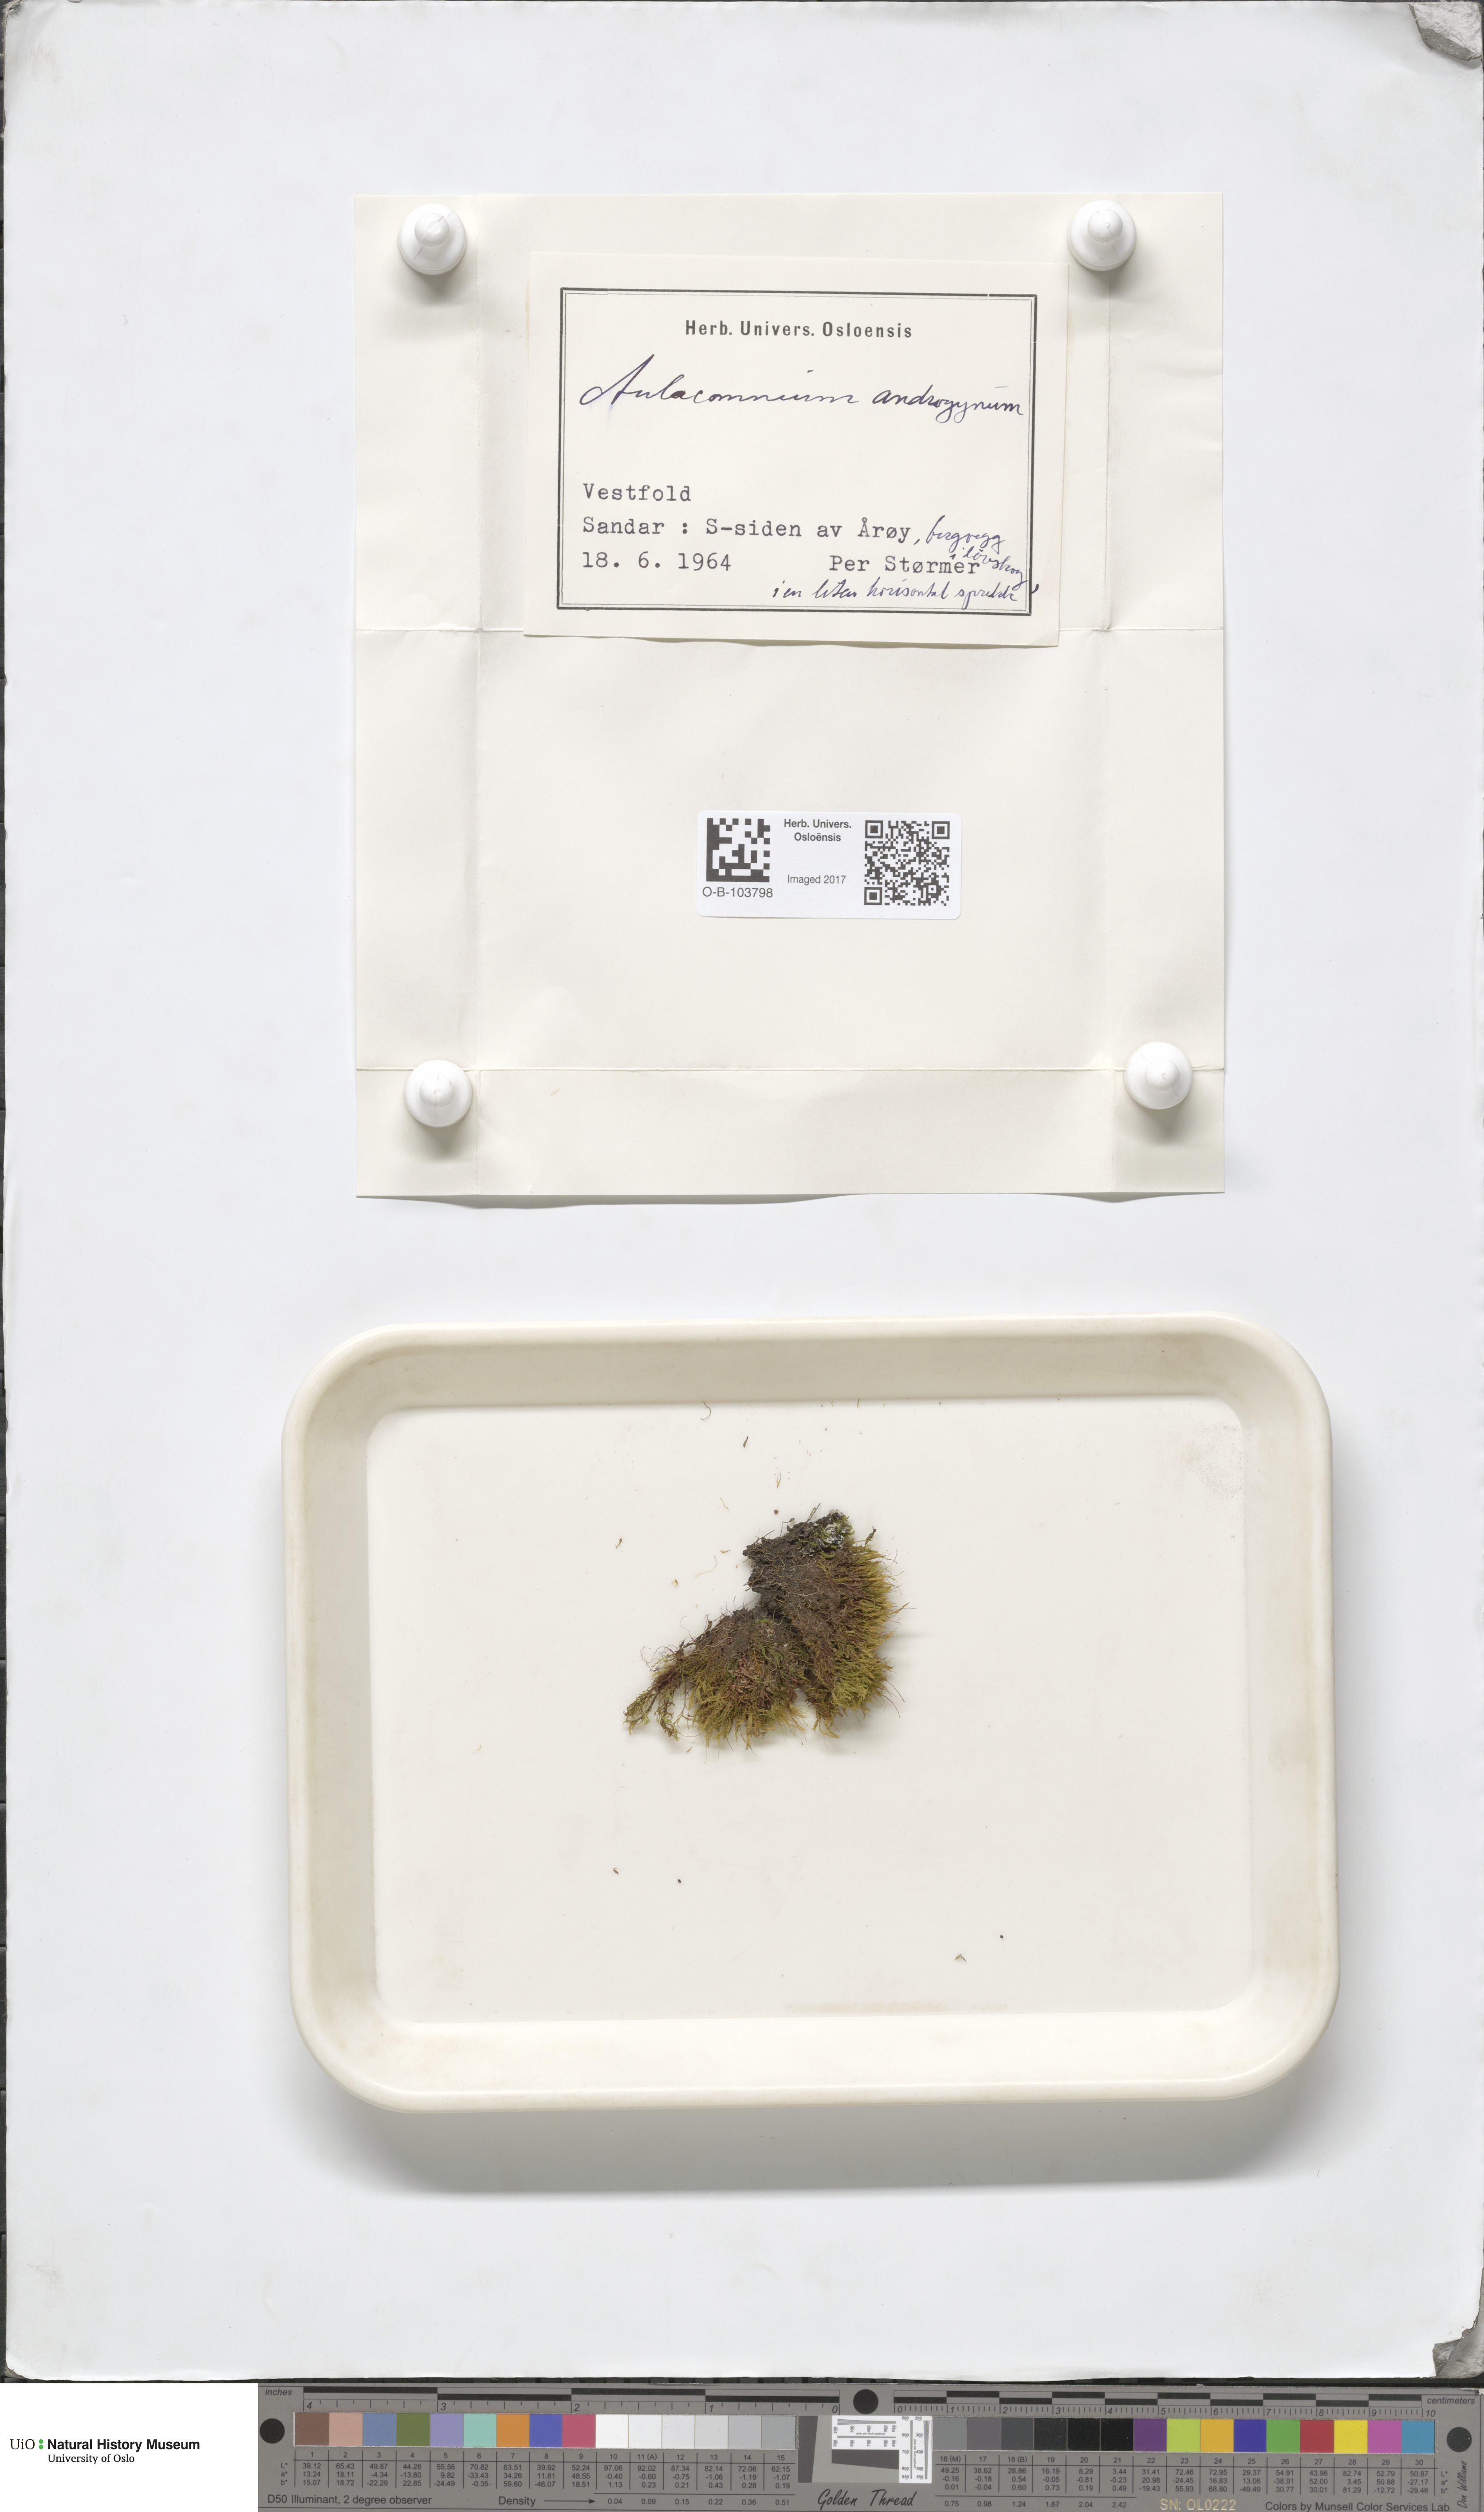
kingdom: Plantae
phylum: Bryophyta
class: Bryopsida
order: Aulacomniales
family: Aulacomniaceae
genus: Aulacomnium
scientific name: Aulacomnium androgynum
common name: Little groove moss
